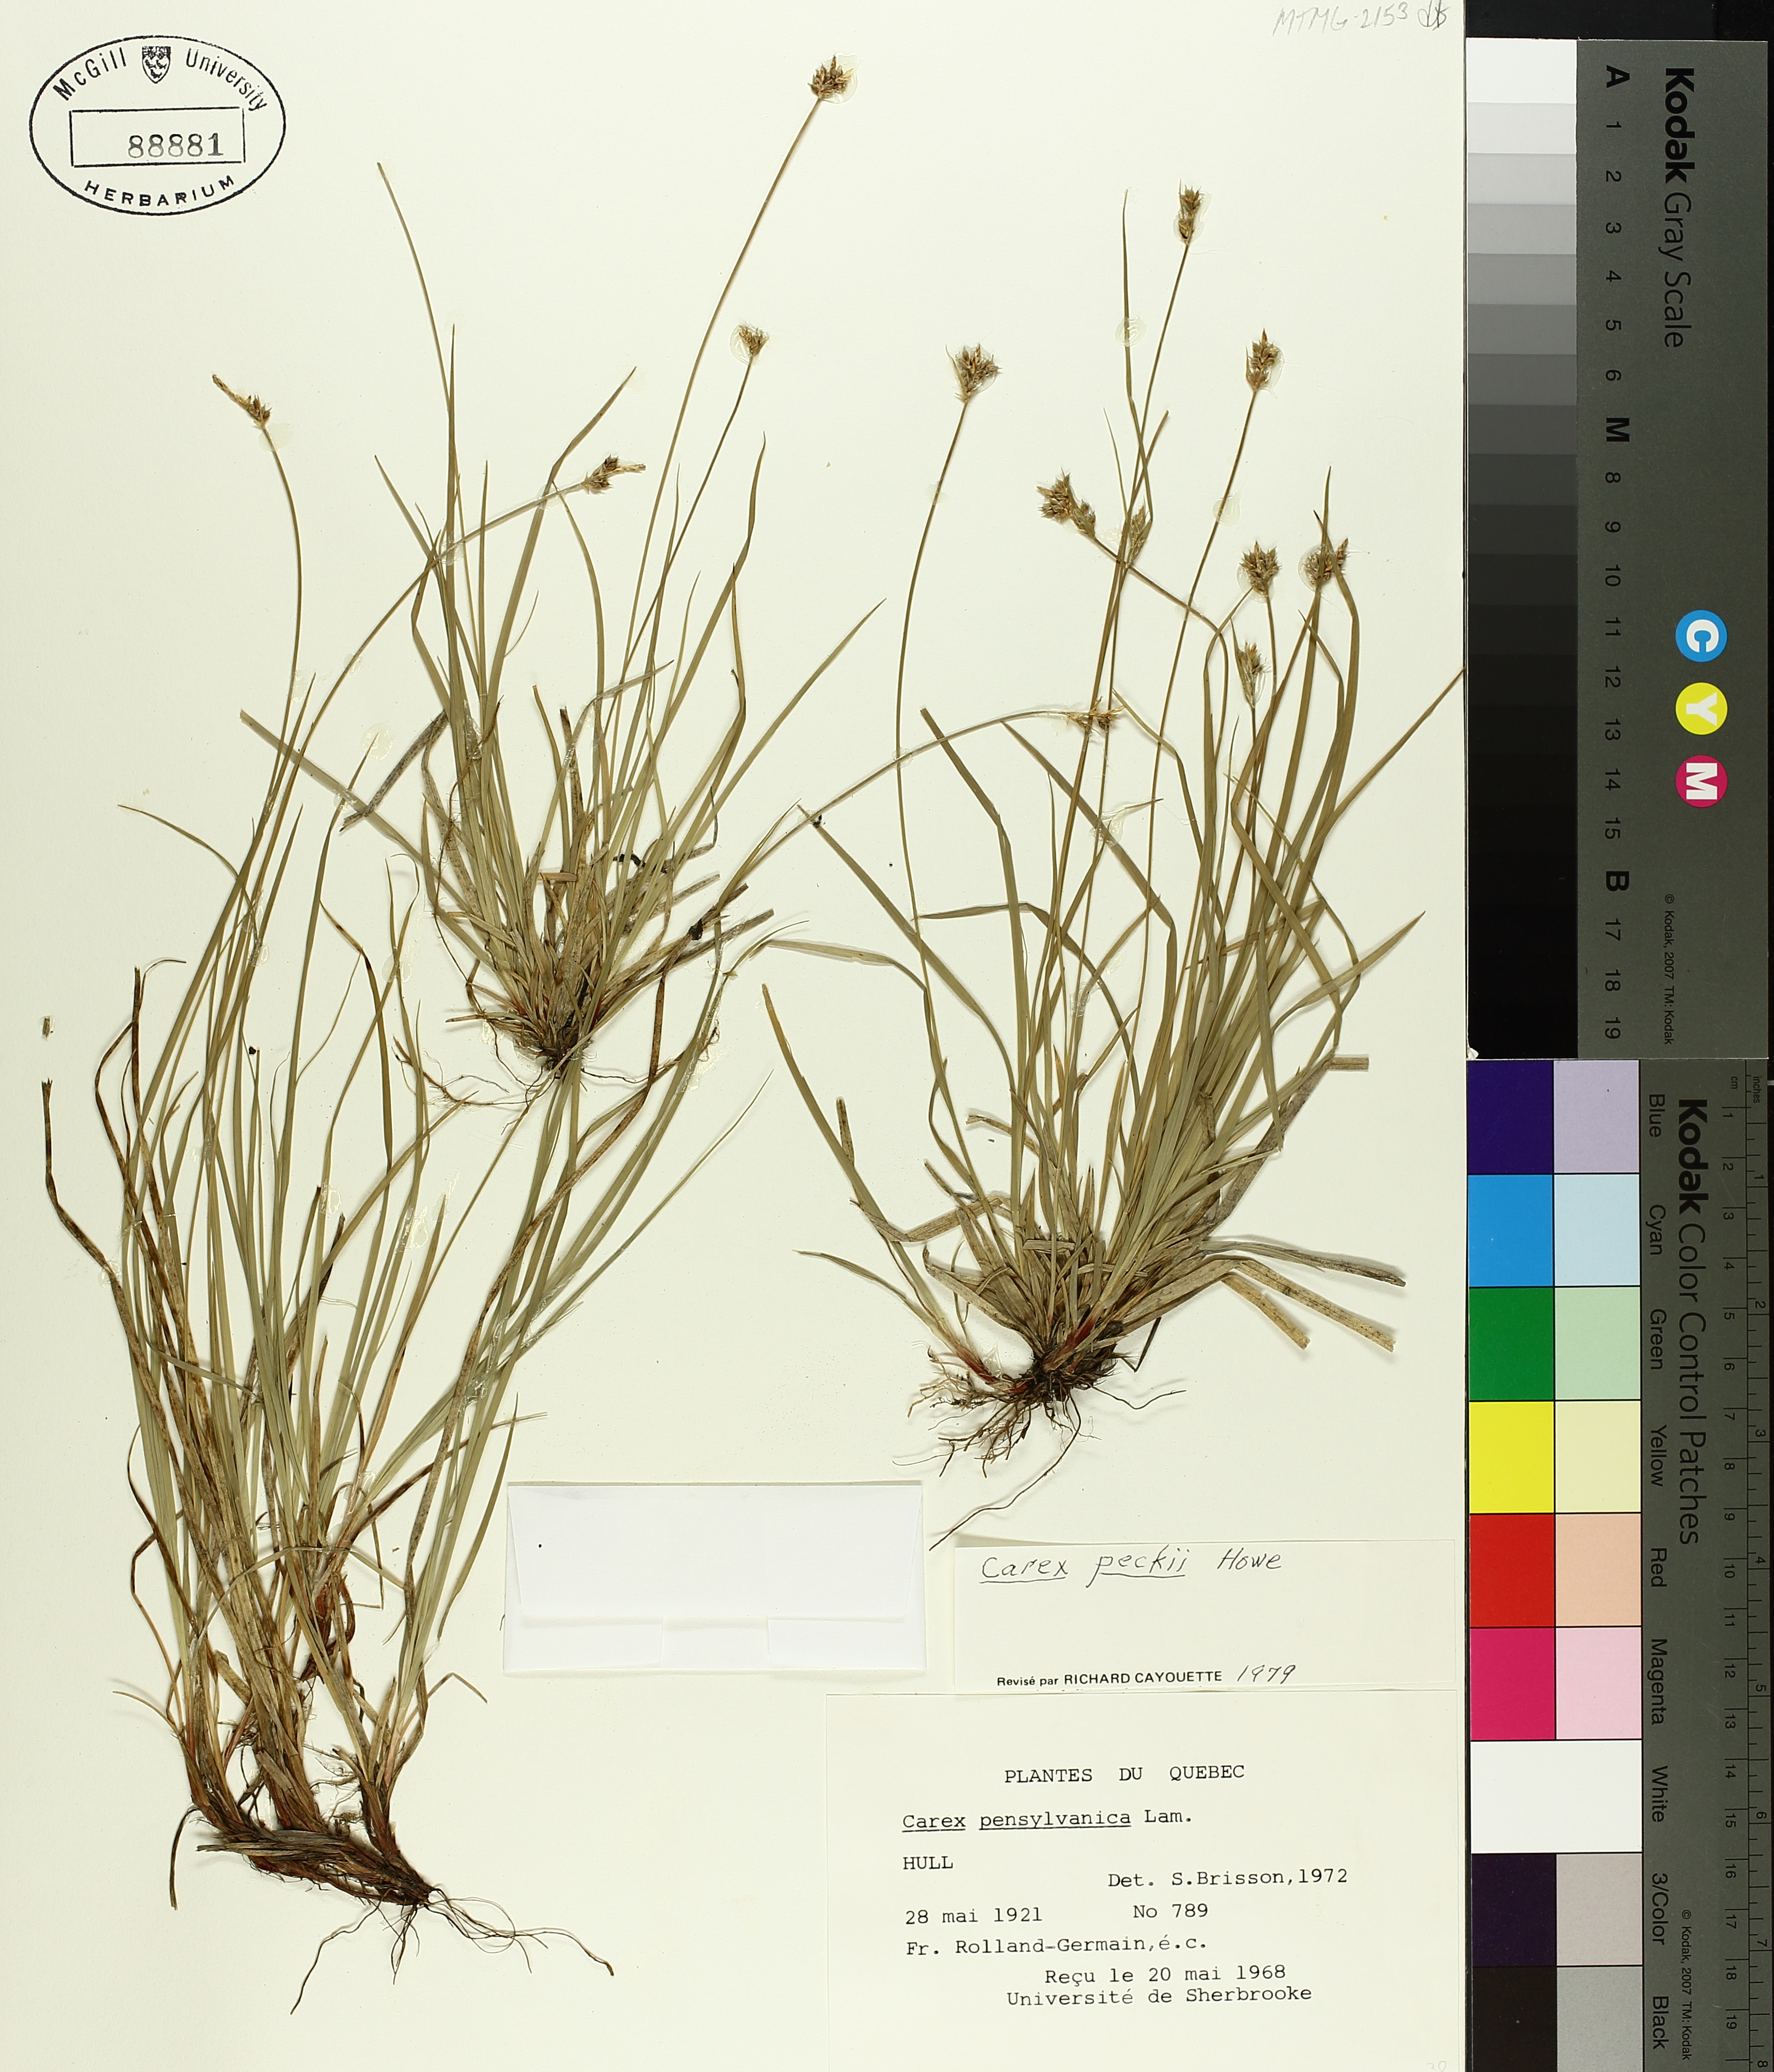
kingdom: Plantae
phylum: Tracheophyta
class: Liliopsida
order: Poales
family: Cyperaceae
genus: Carex
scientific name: Carex peckii
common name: Peck's oak sedge
